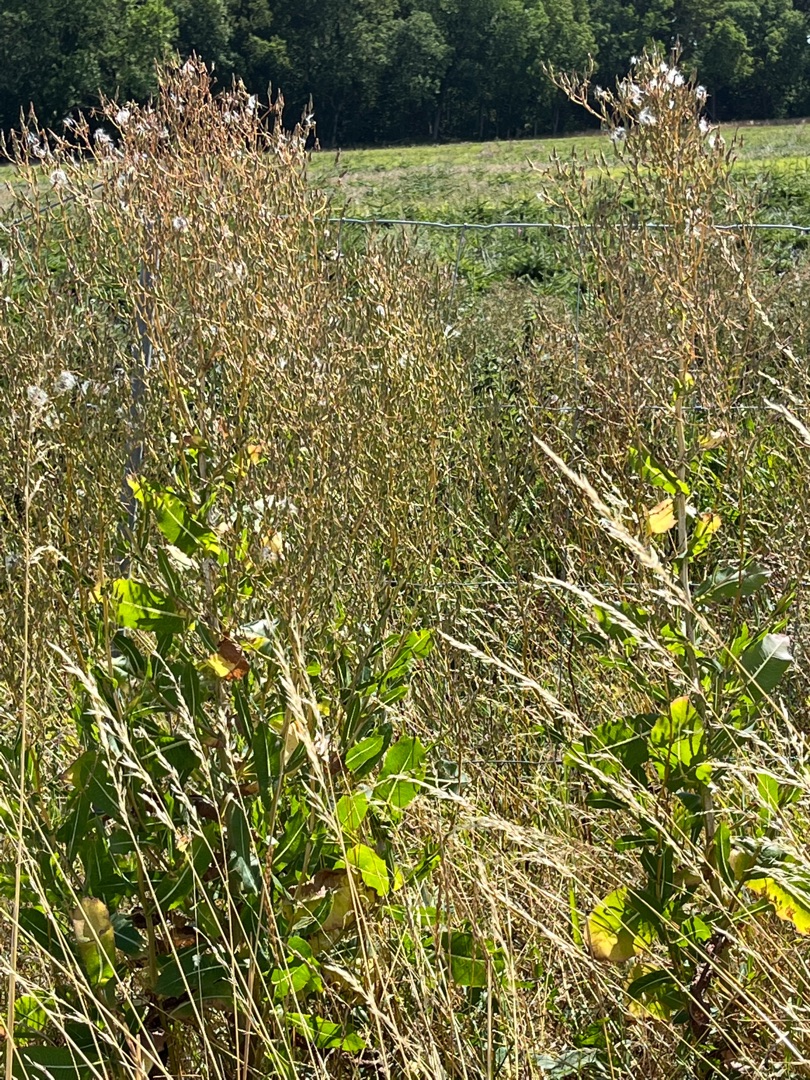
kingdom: Plantae
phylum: Tracheophyta
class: Magnoliopsida
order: Asterales
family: Asteraceae
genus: Lactuca
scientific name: Lactuca serriola
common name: Tornet salat
